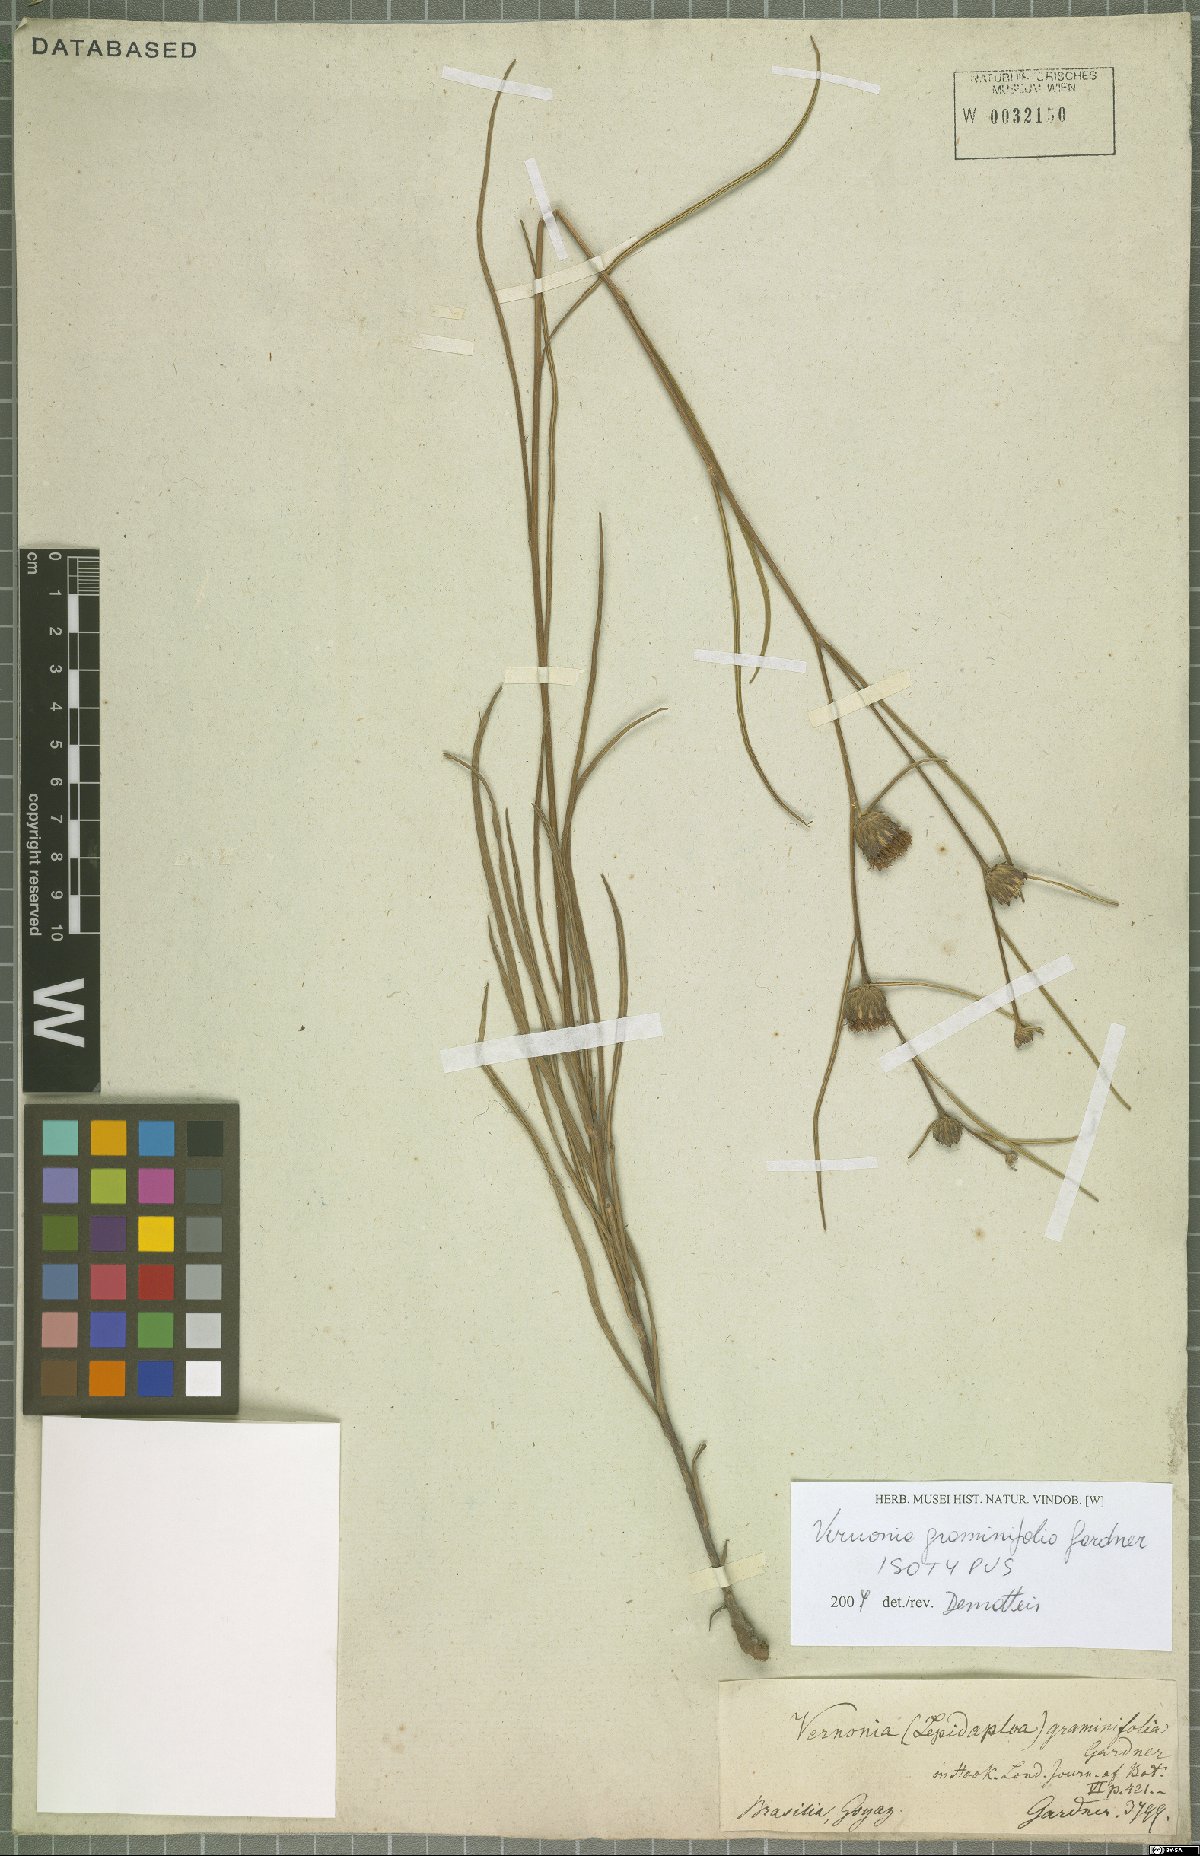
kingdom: Plantae
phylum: Tracheophyta
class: Magnoliopsida
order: Asterales
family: Asteraceae
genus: Lessingianthus
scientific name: Lessingianthus graminifolius
